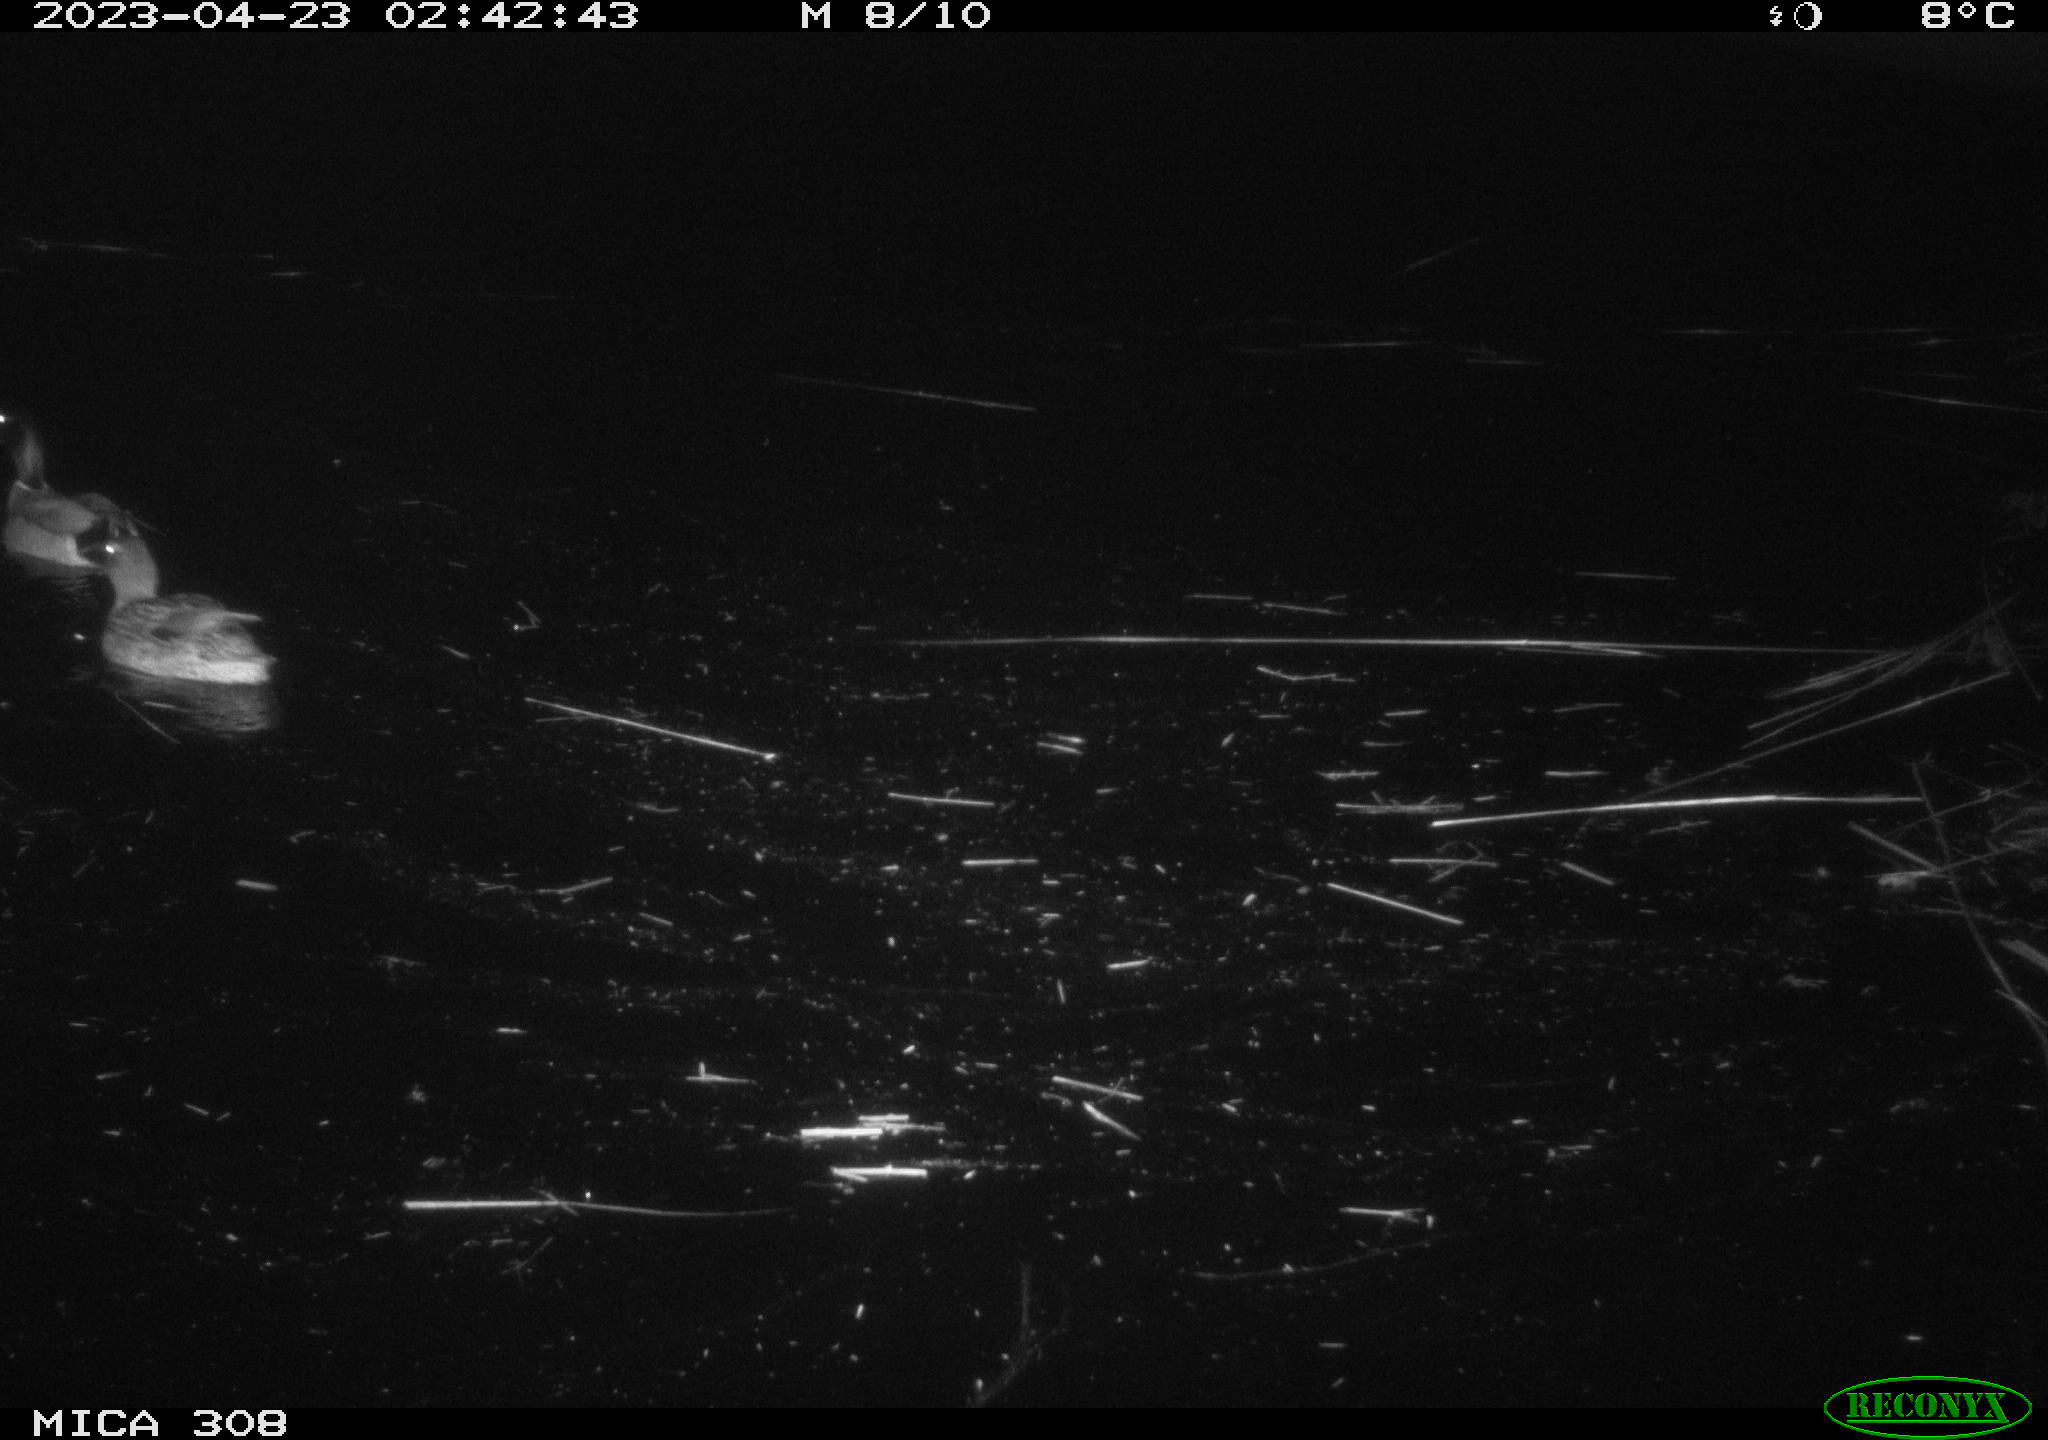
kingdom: Animalia
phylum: Chordata
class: Aves
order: Anseriformes
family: Anatidae
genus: Anas
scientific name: Anas
